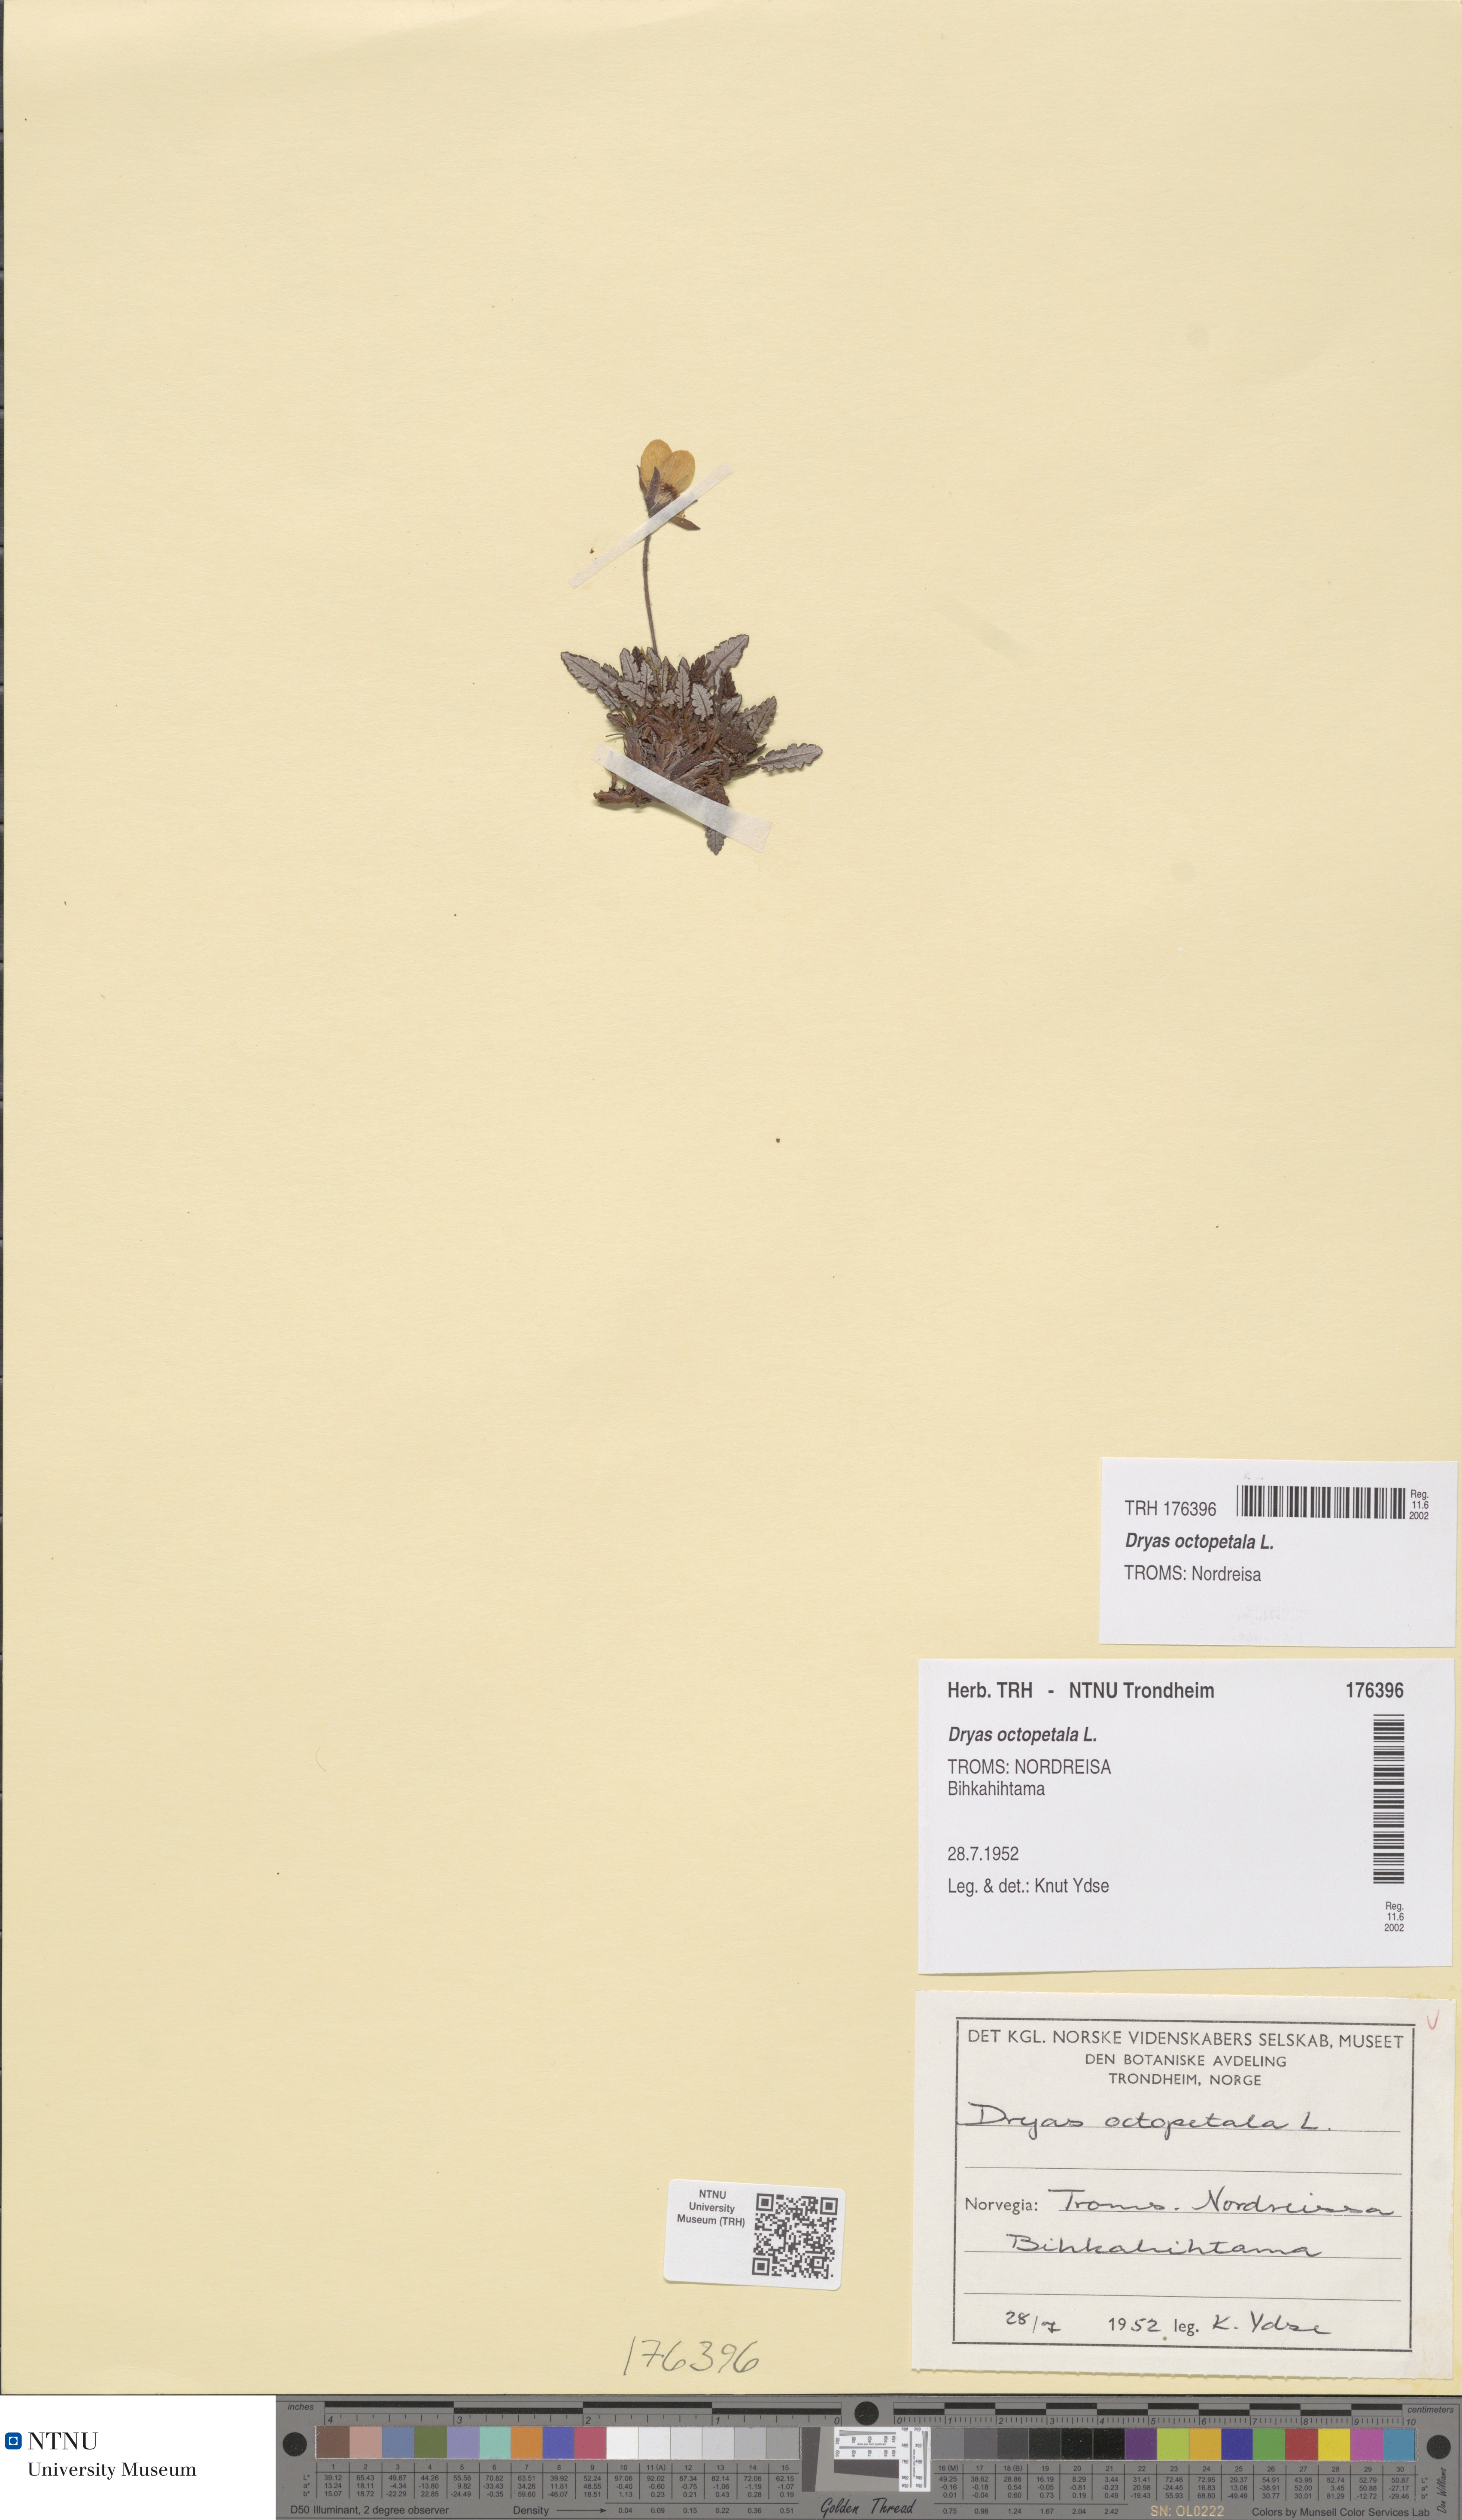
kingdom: Plantae
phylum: Tracheophyta
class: Magnoliopsida
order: Rosales
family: Rosaceae
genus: Dryas
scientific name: Dryas octopetala
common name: Eight-petal mountain-avens
